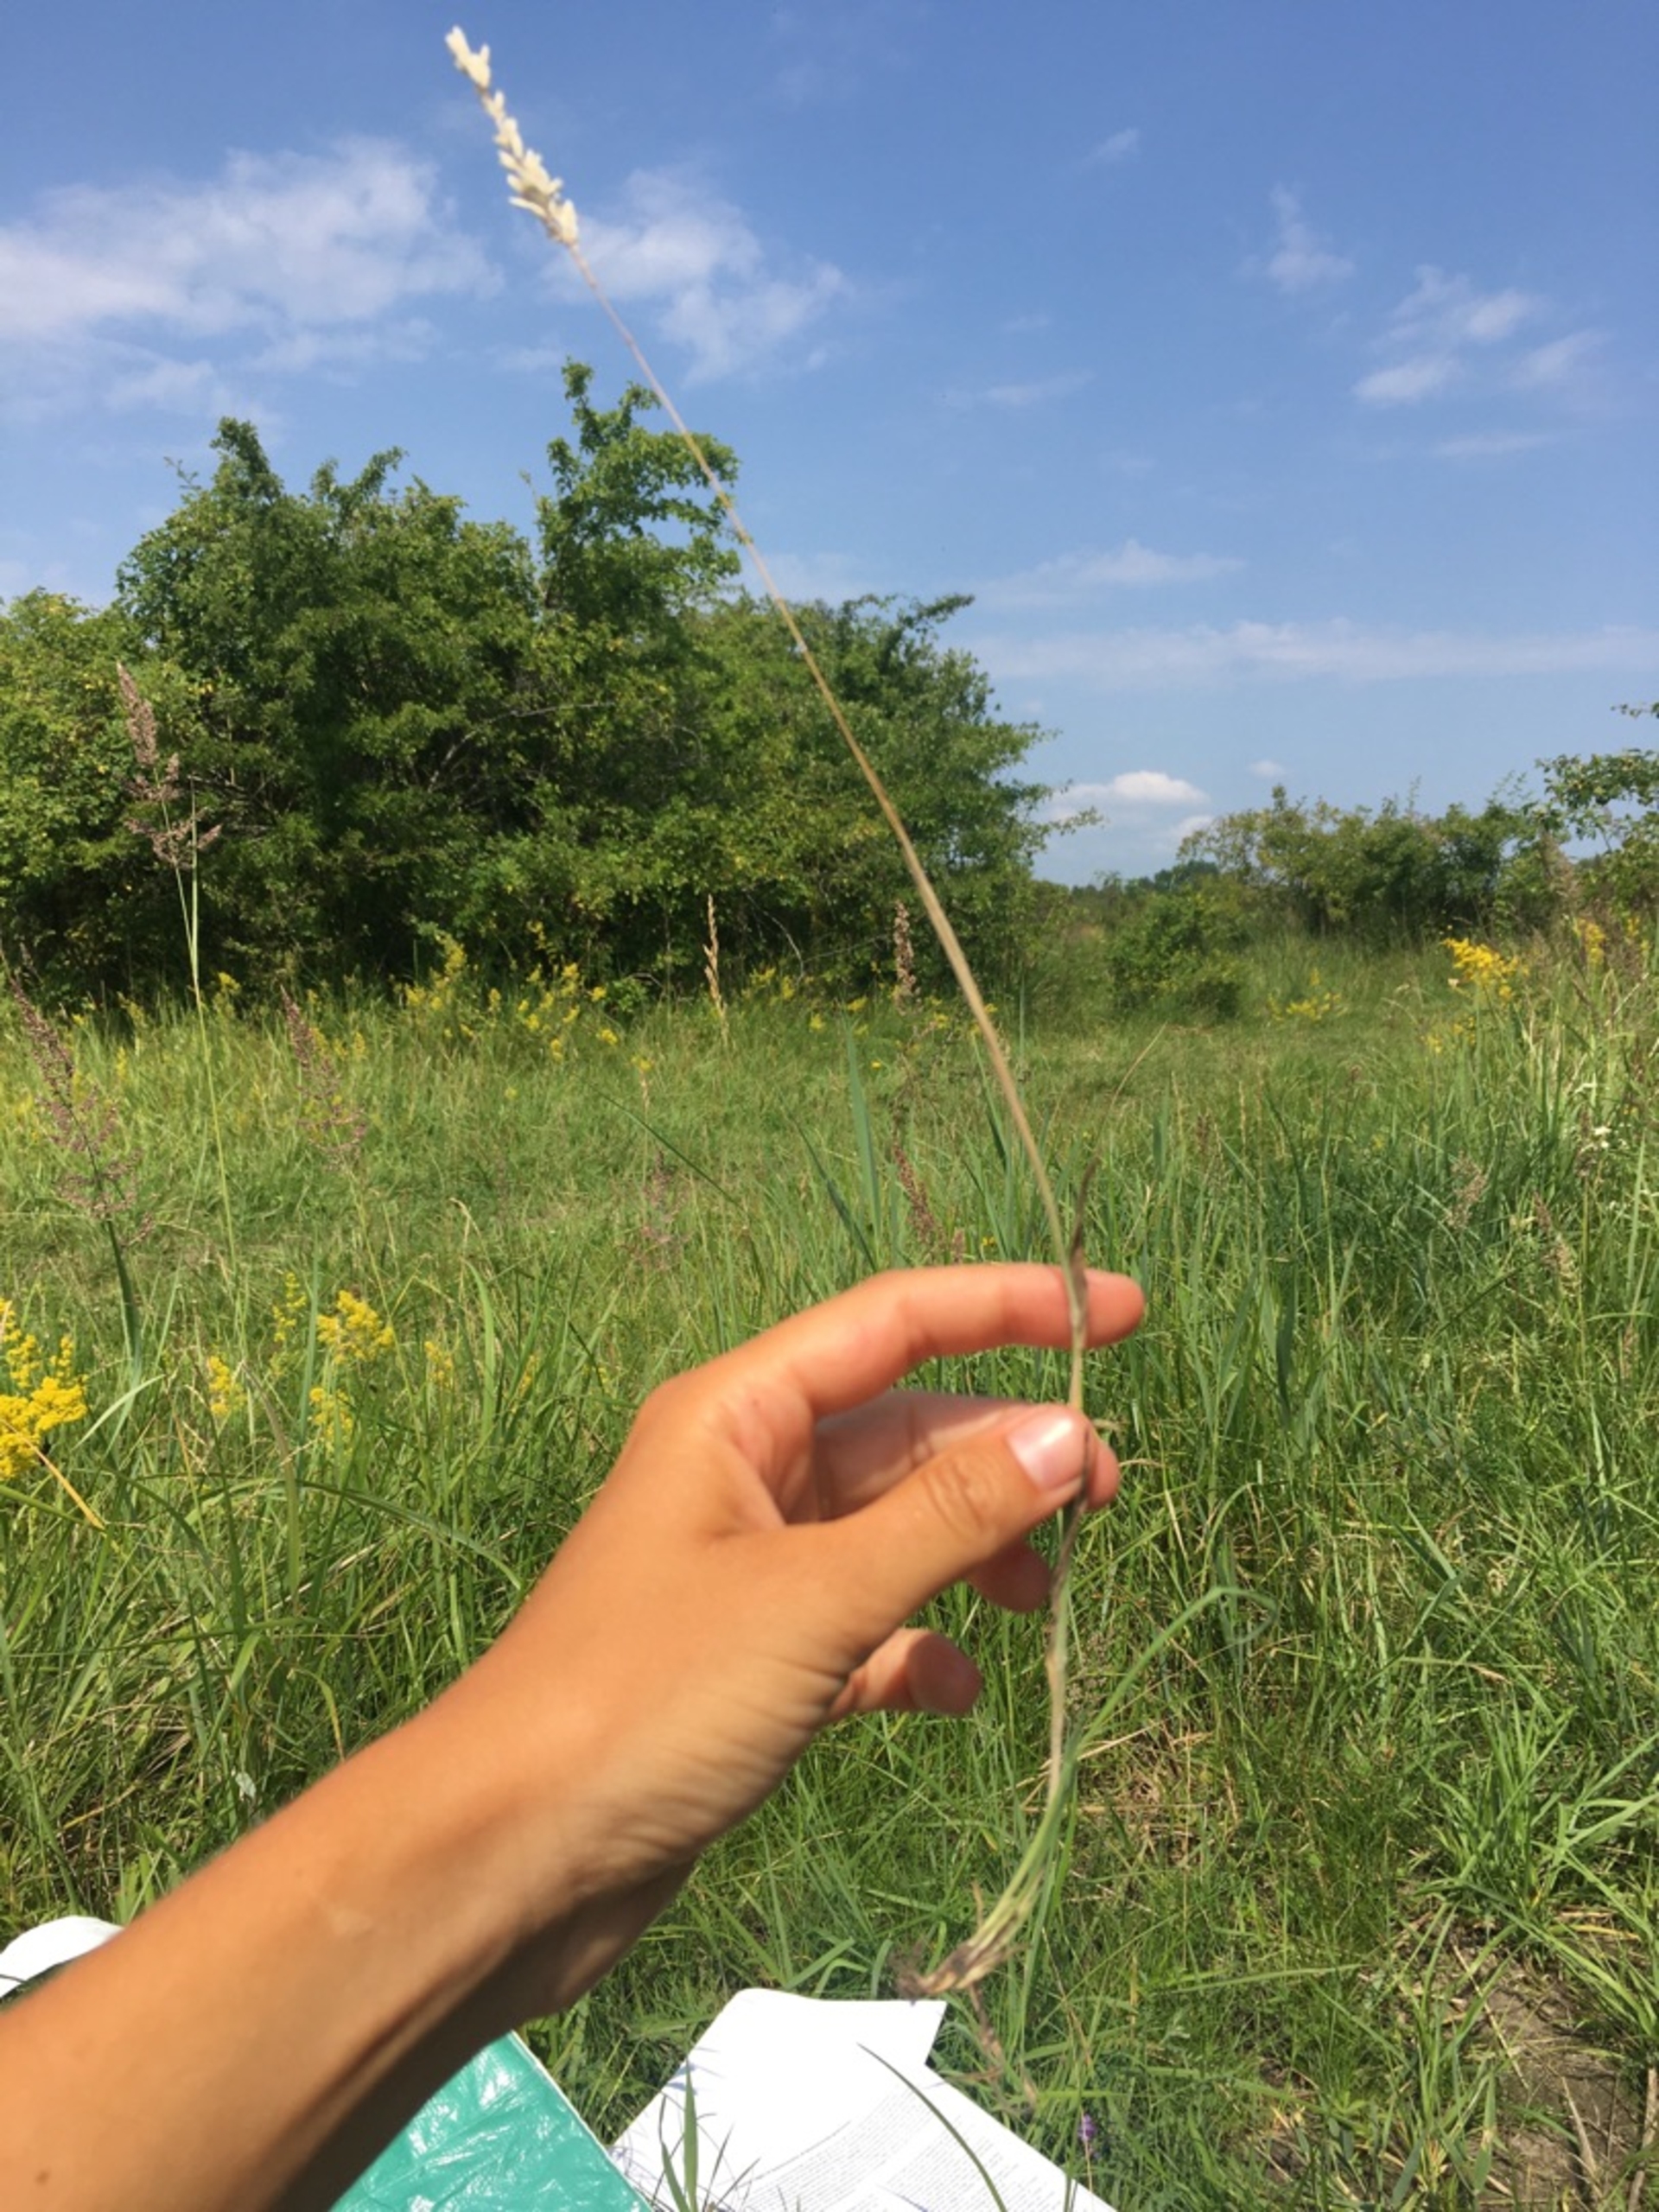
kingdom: Plantae
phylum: Tracheophyta
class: Liliopsida
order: Poales
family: Poaceae
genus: Holcus
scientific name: Holcus lanatus
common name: Fløjlsgræs
